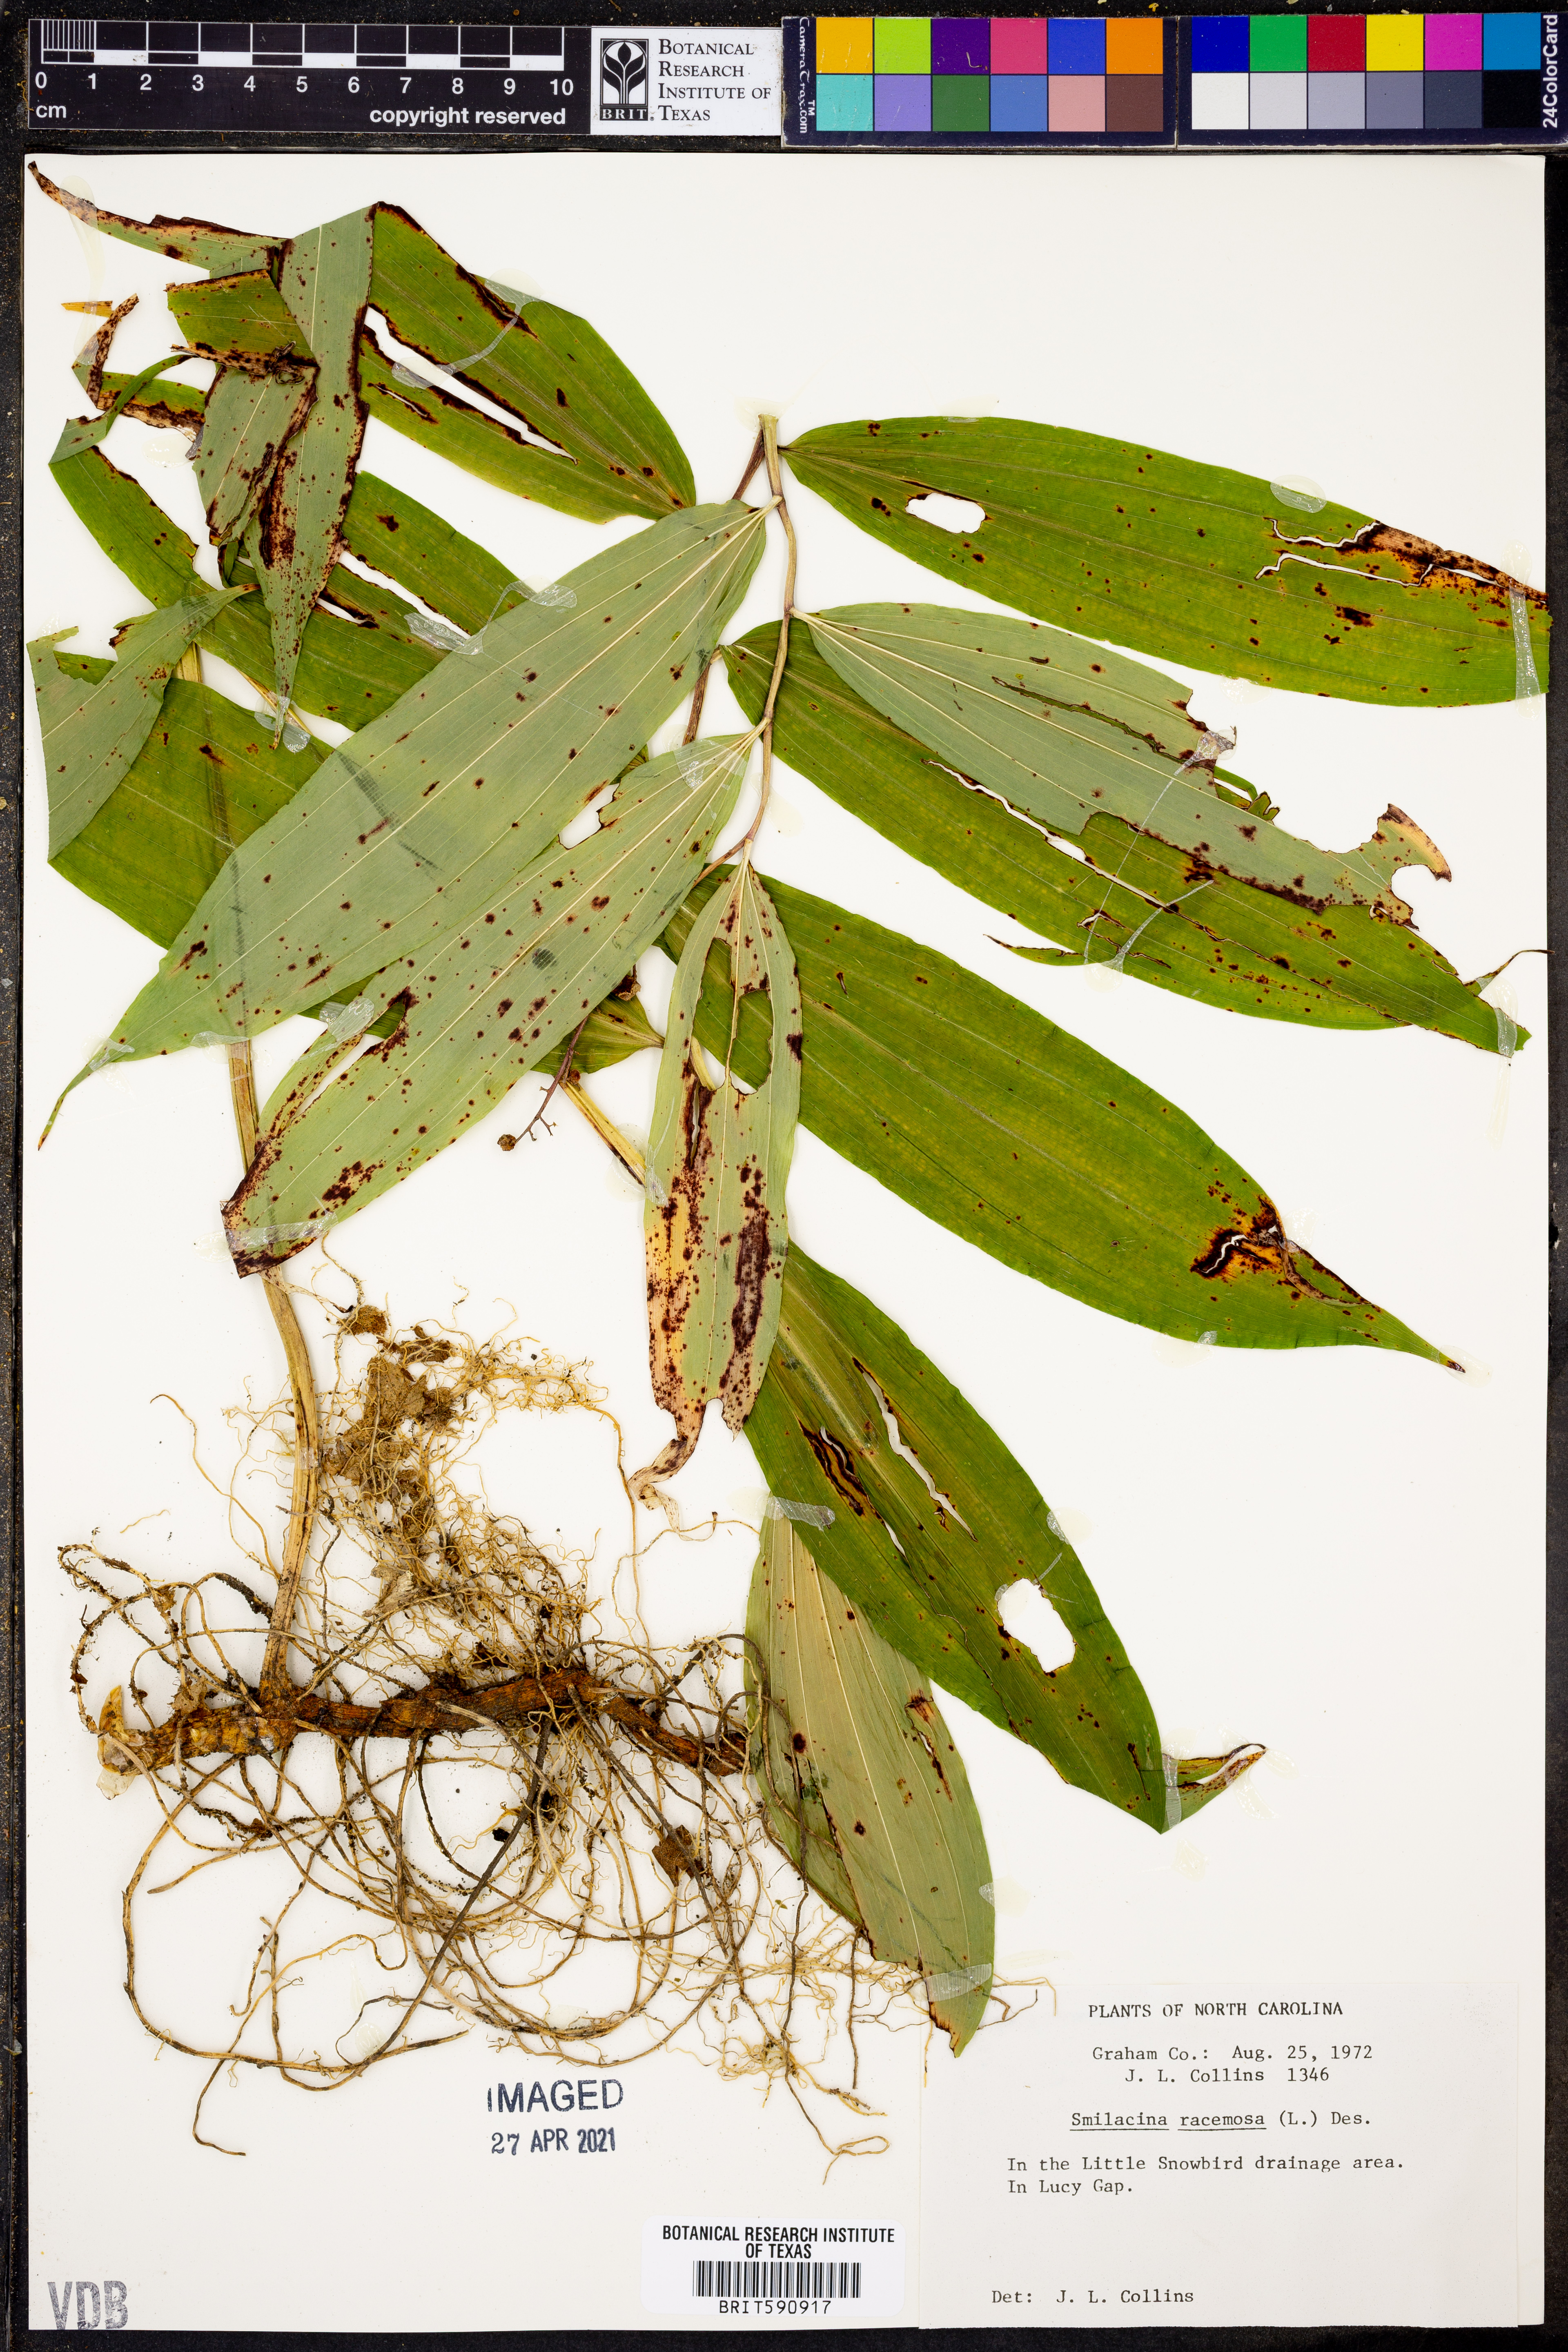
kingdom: Plantae
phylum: Tracheophyta
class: Liliopsida
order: Asparagales
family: Asparagaceae
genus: Maianthemum
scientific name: Maianthemum racemosum
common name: False spikenard
